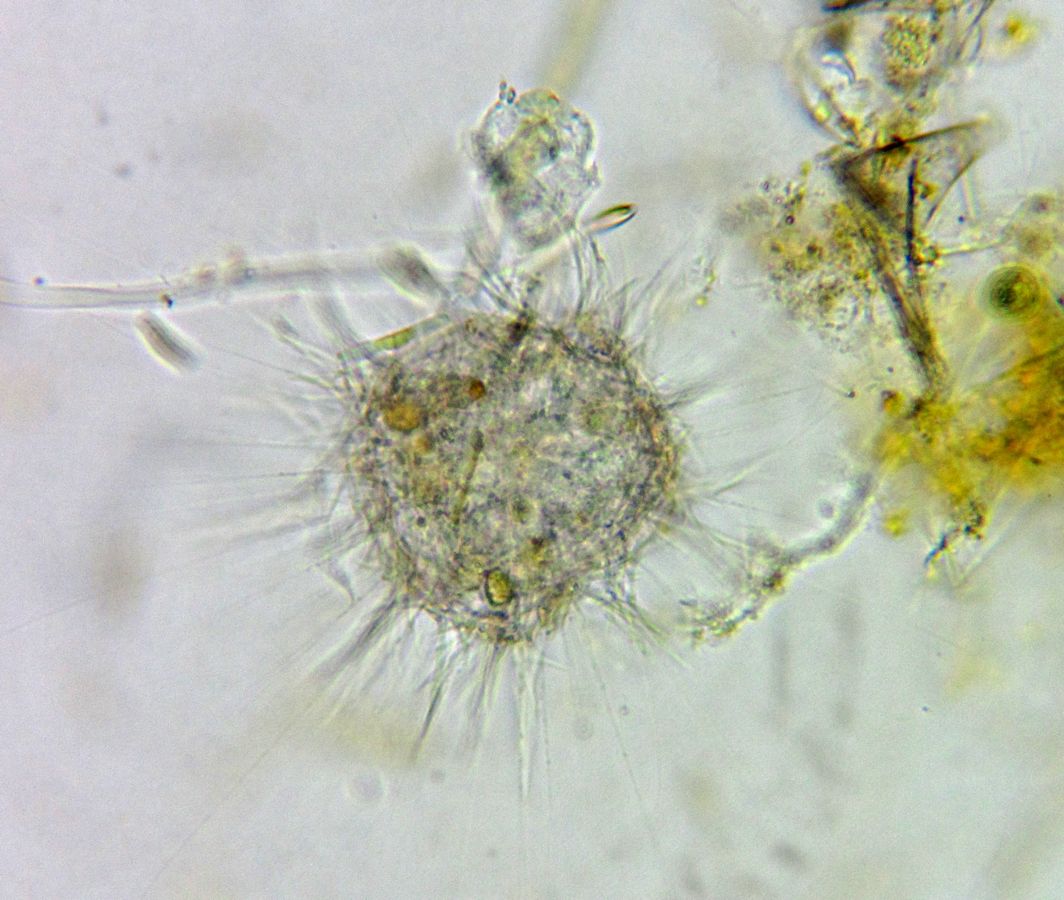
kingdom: Animalia
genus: Raphidiophrys
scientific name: Raphidiophrys
